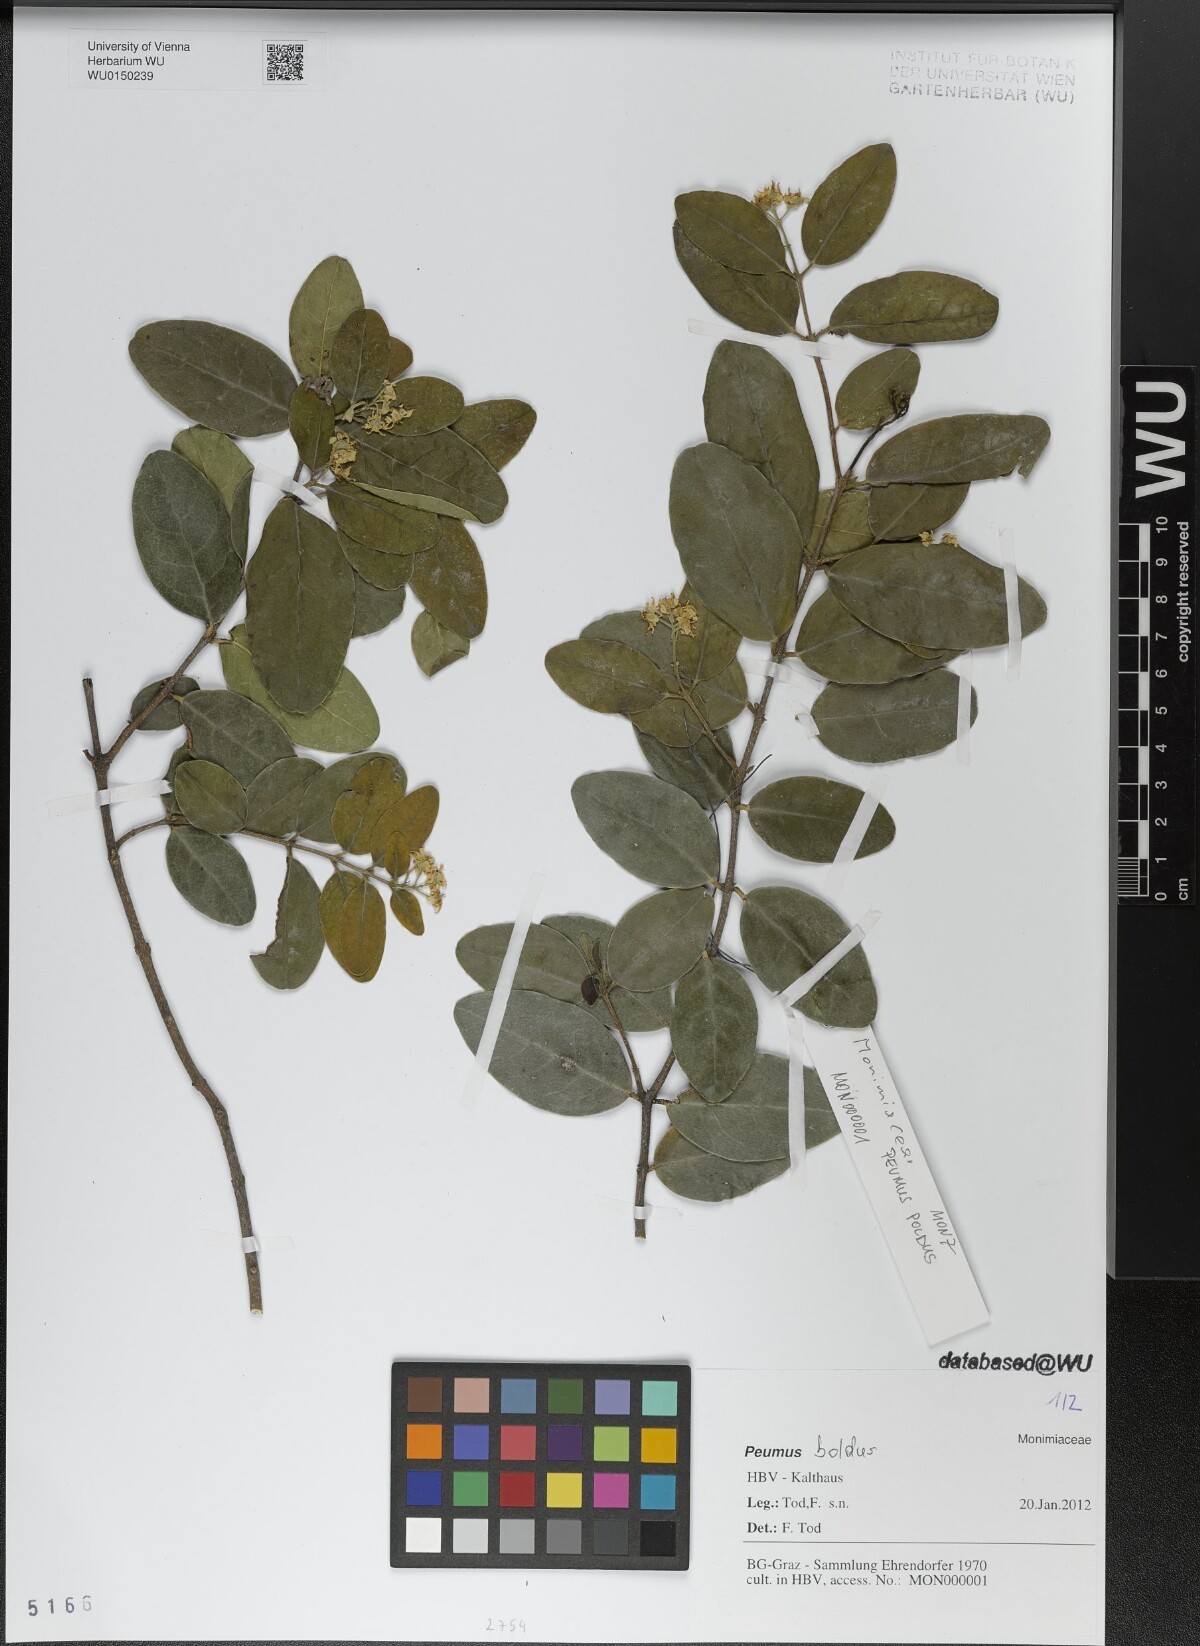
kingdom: Plantae
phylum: Tracheophyta
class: Magnoliopsida
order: Laurales
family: Monimiaceae
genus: Peumus
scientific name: Peumus boldus
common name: Boldo
